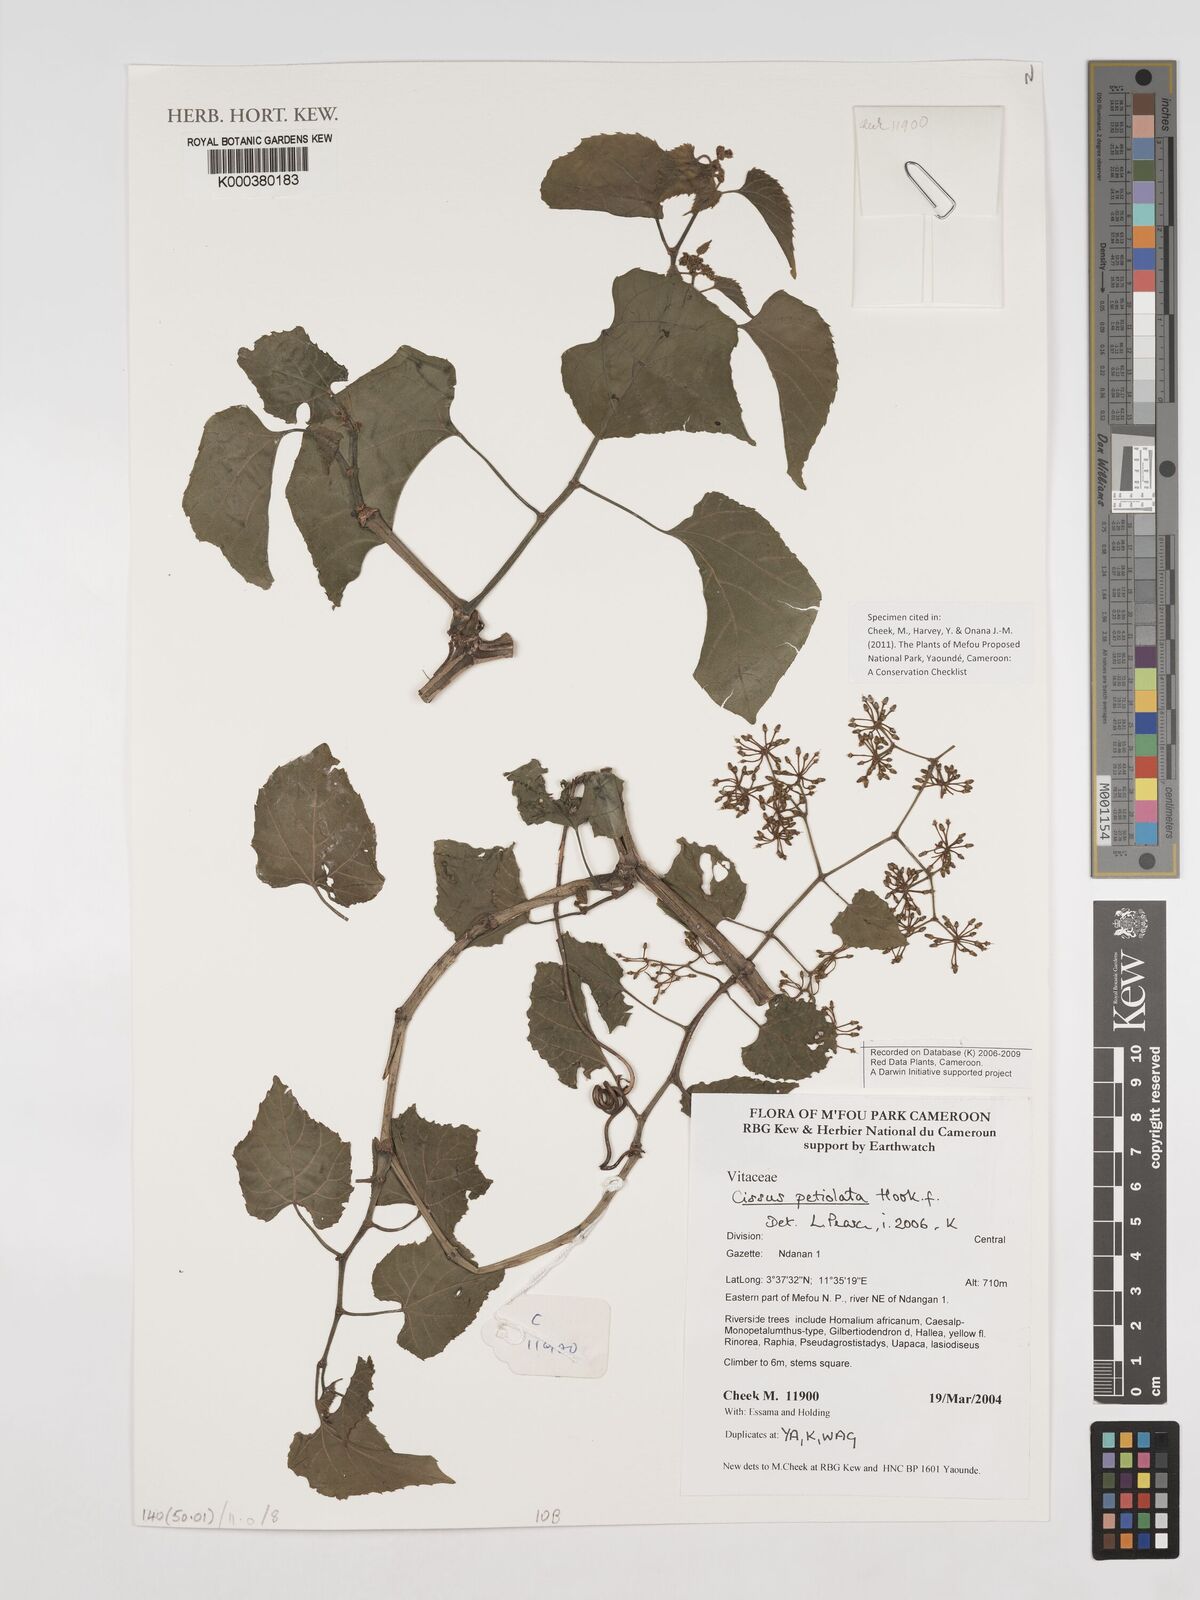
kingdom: Plantae
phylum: Tracheophyta
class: Magnoliopsida
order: Vitales
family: Vitaceae
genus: Cissus
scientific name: Cissus petiolata
